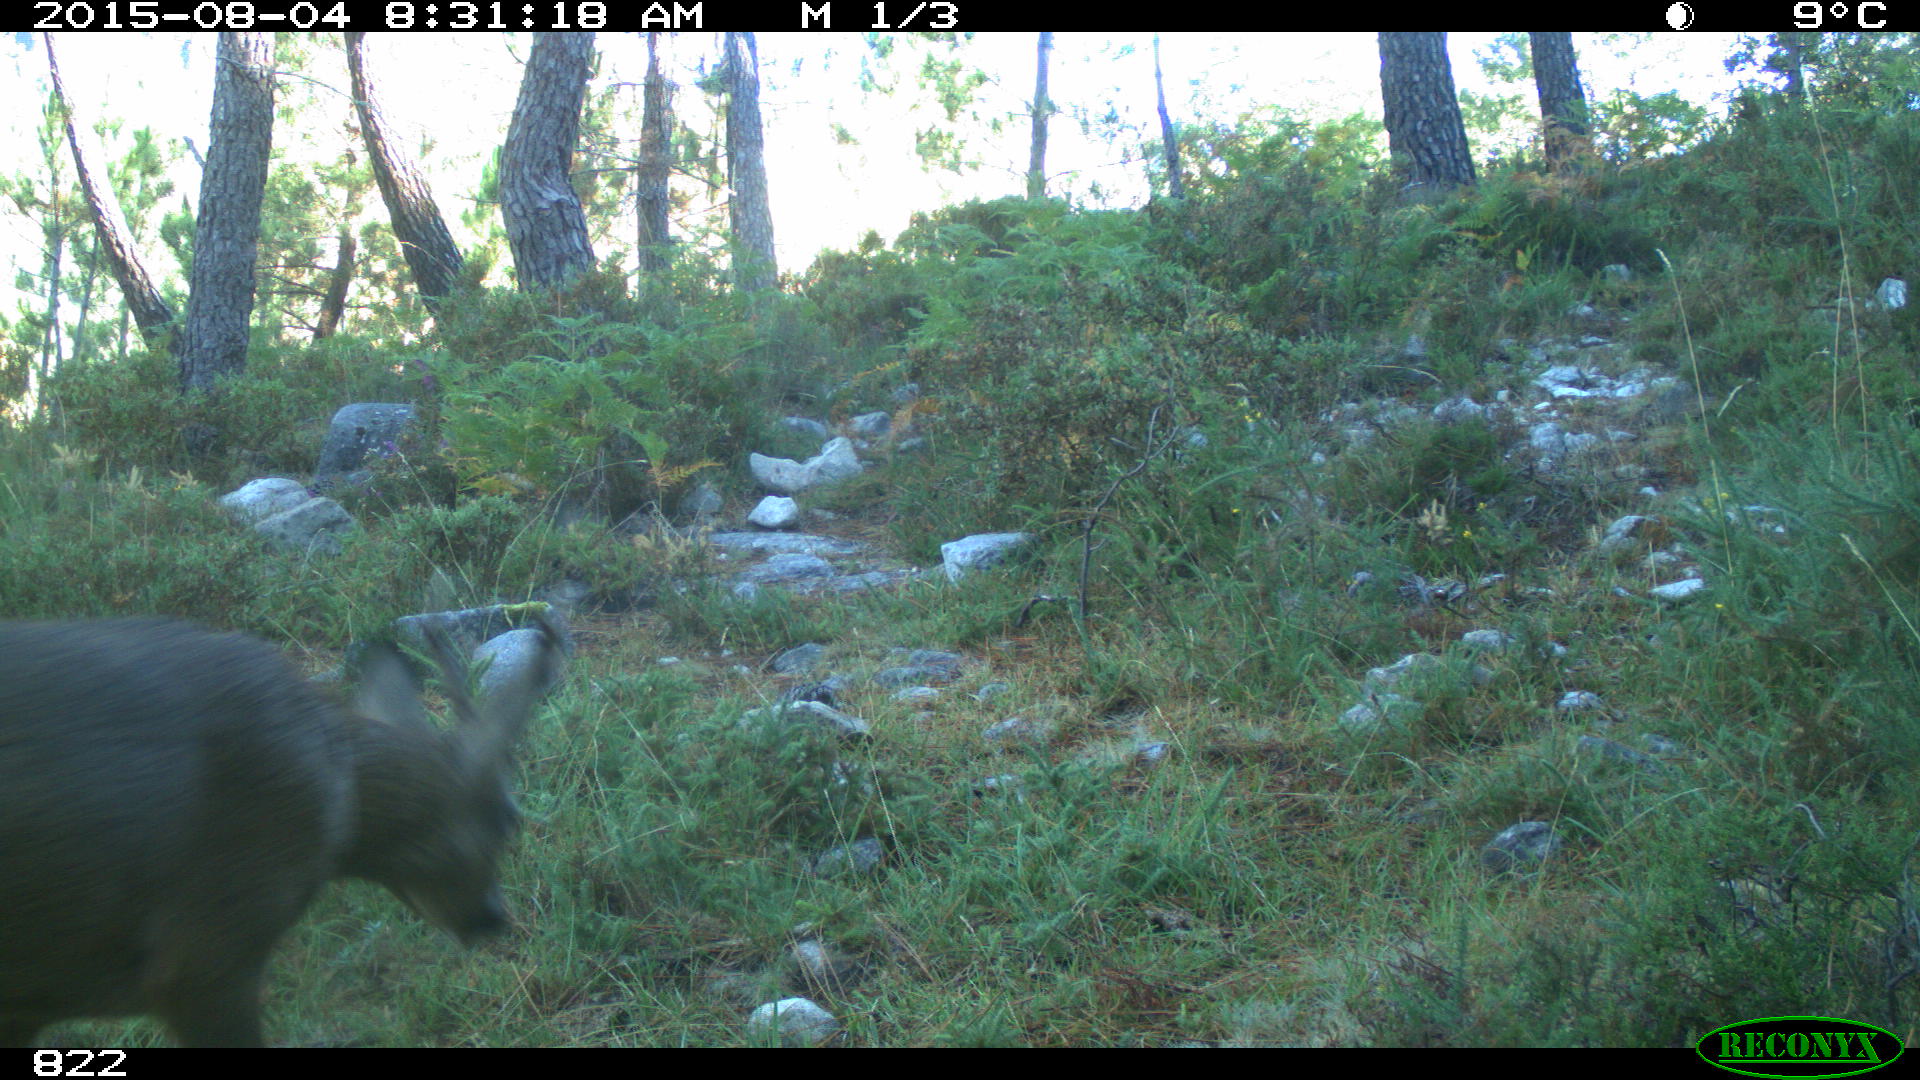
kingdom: Animalia
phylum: Chordata
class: Mammalia
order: Artiodactyla
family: Cervidae
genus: Capreolus
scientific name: Capreolus capreolus
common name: Western roe deer
